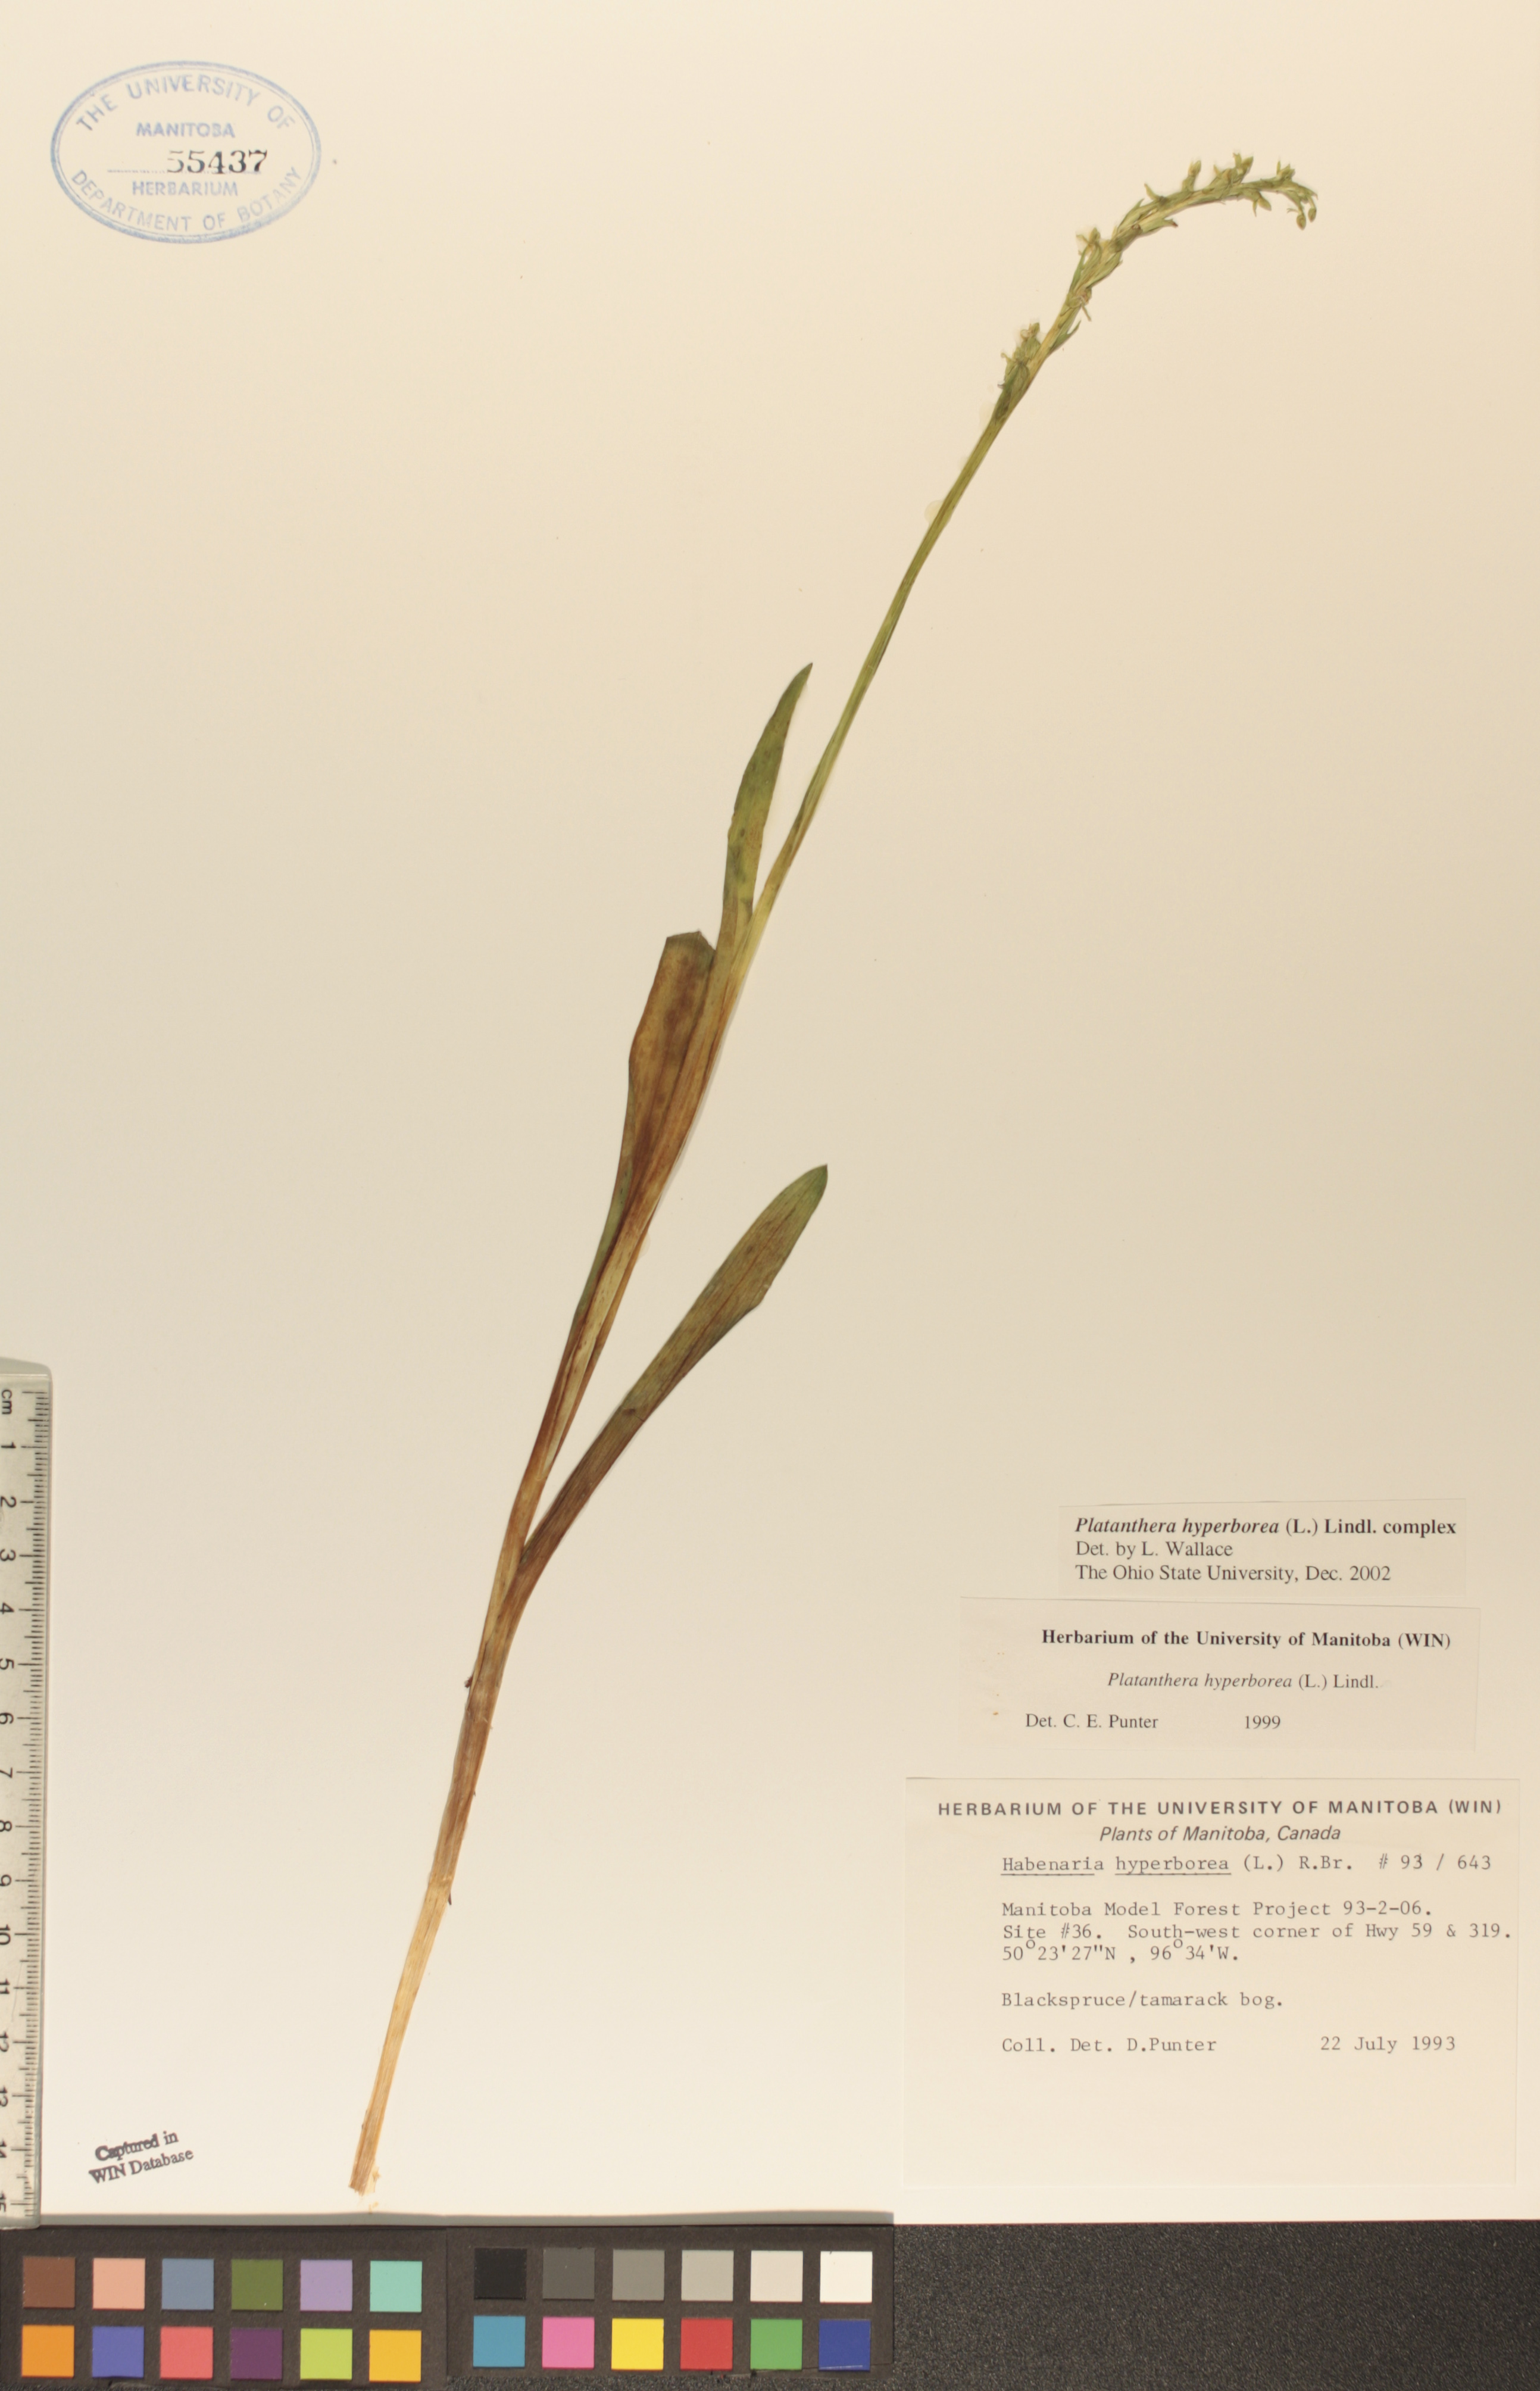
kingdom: Plantae
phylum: Tracheophyta
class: Liliopsida
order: Asparagales
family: Orchidaceae
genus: Platanthera
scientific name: Platanthera hyperborea
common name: Northern green orchid
